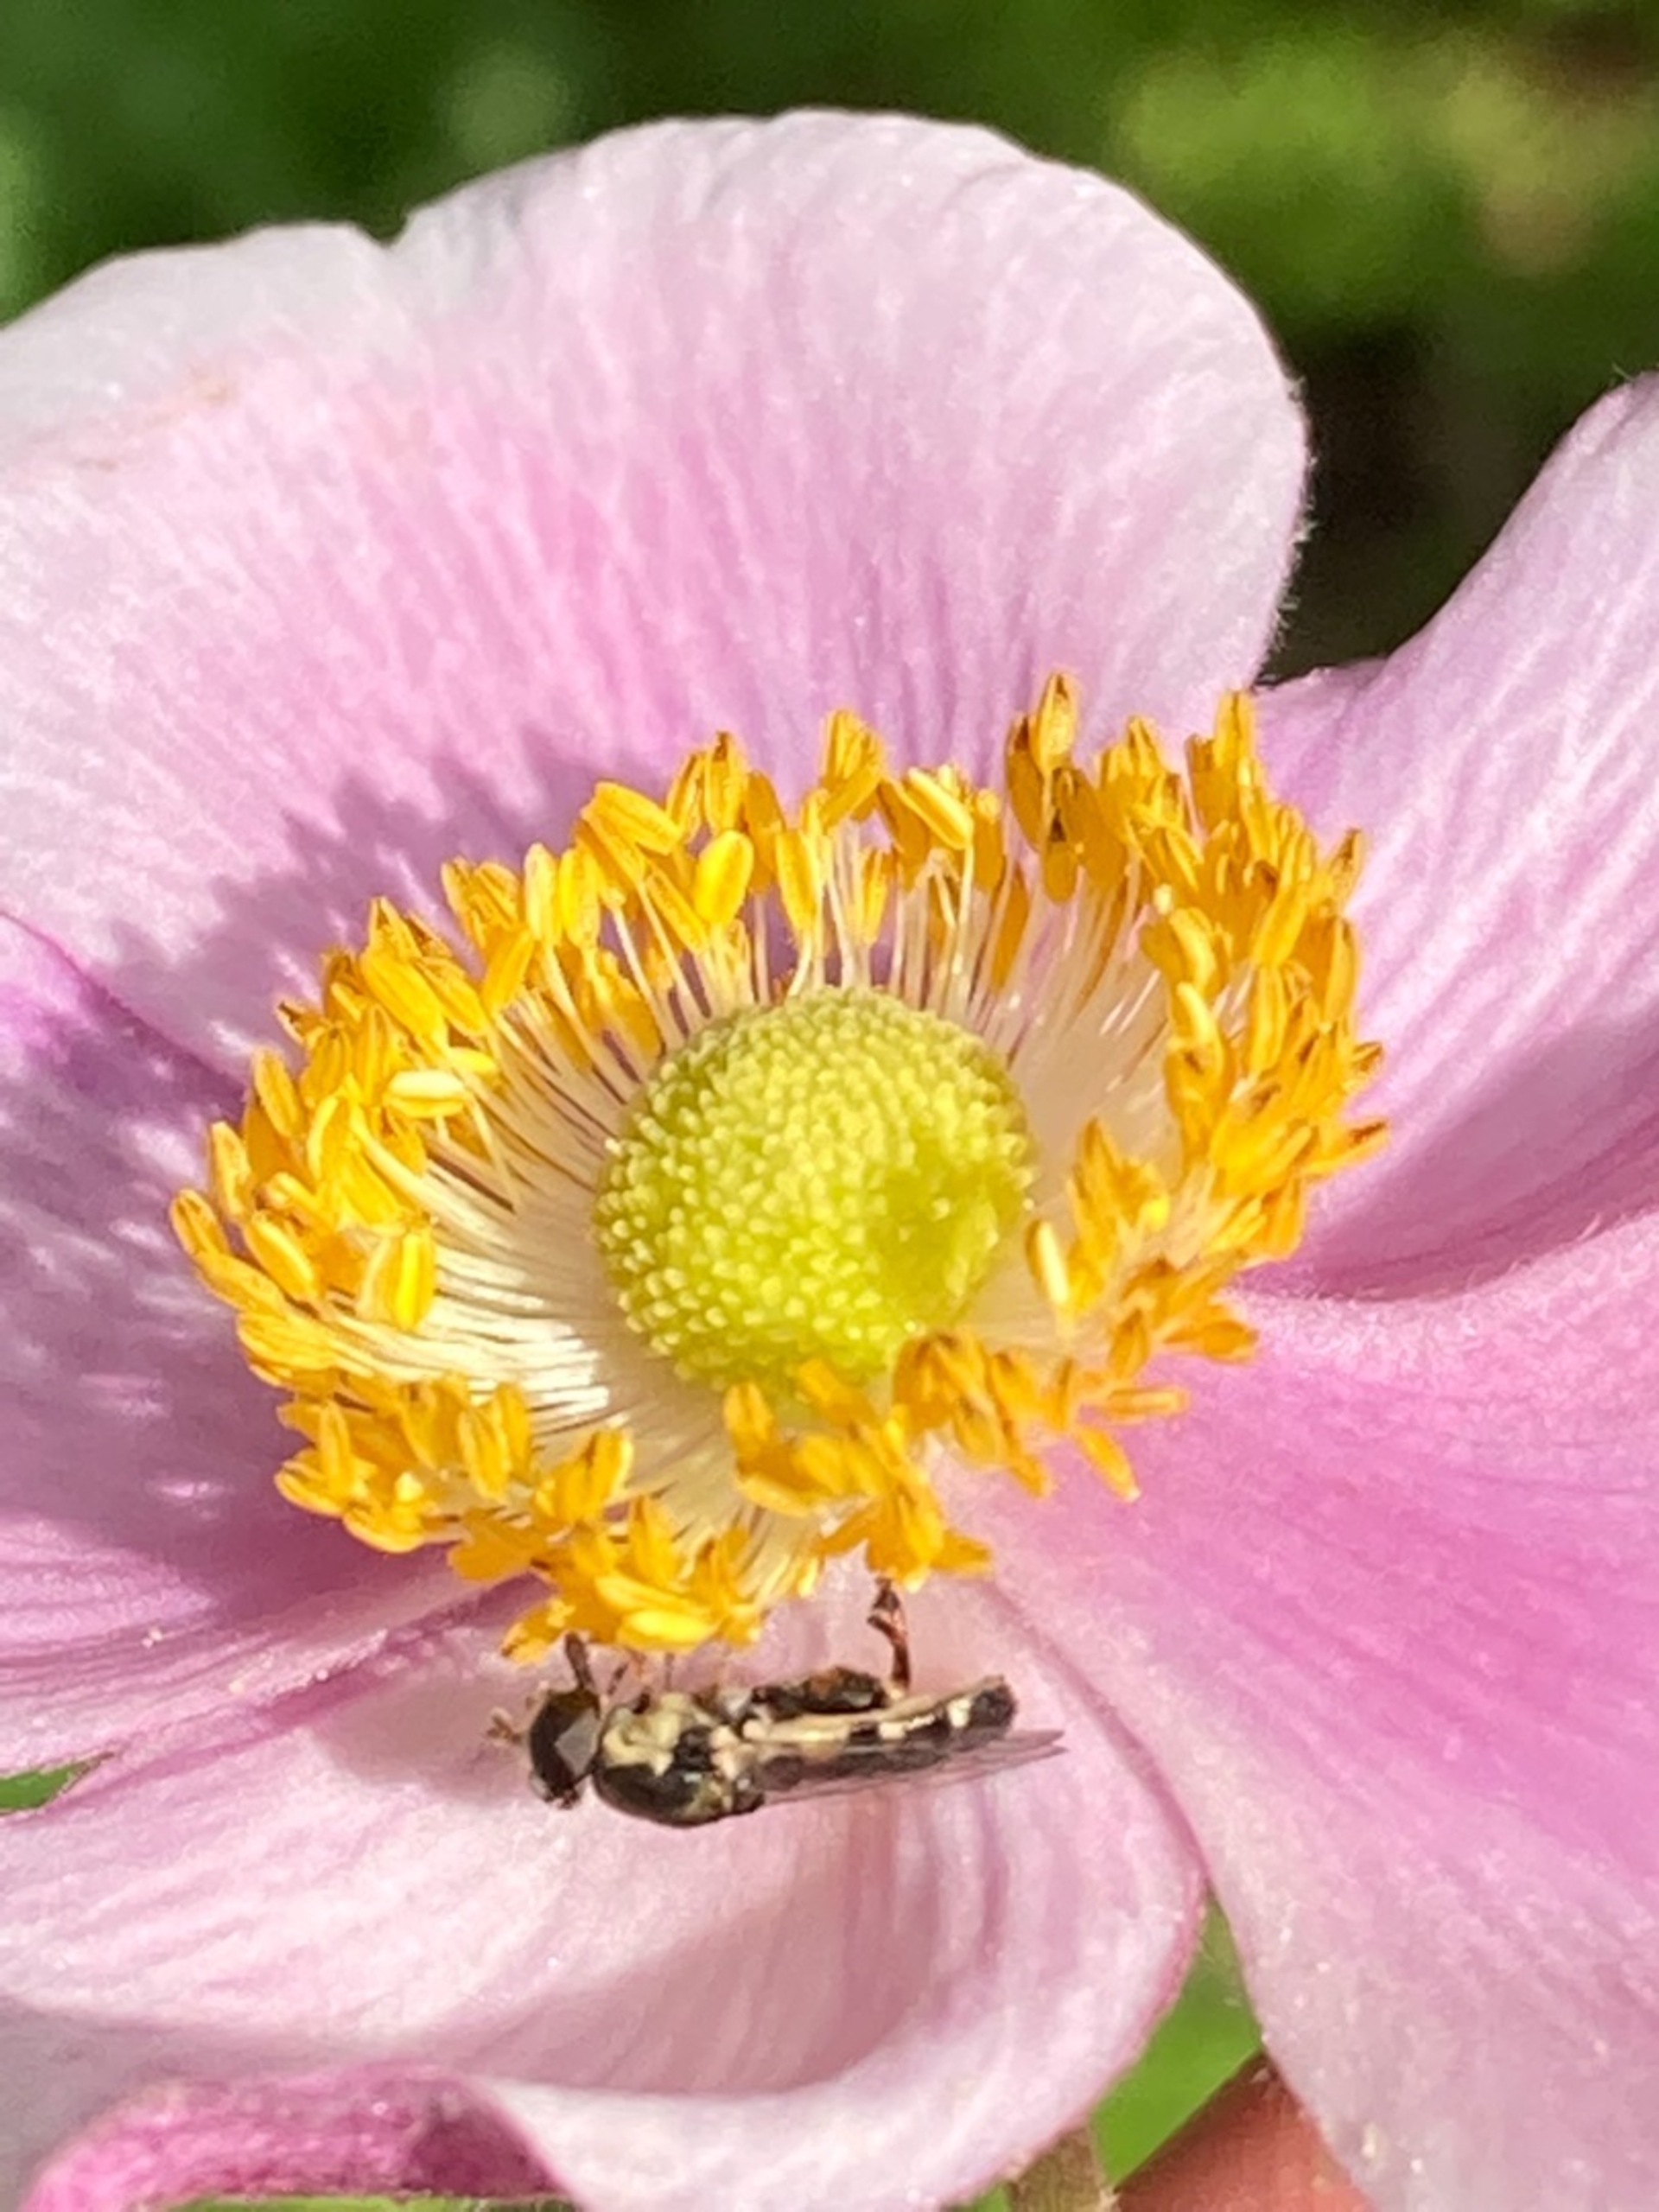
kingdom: Animalia
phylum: Arthropoda
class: Insecta
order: Diptera
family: Syrphidae
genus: Syritta
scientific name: Syritta pipiens
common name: Kompost-svirreflue
